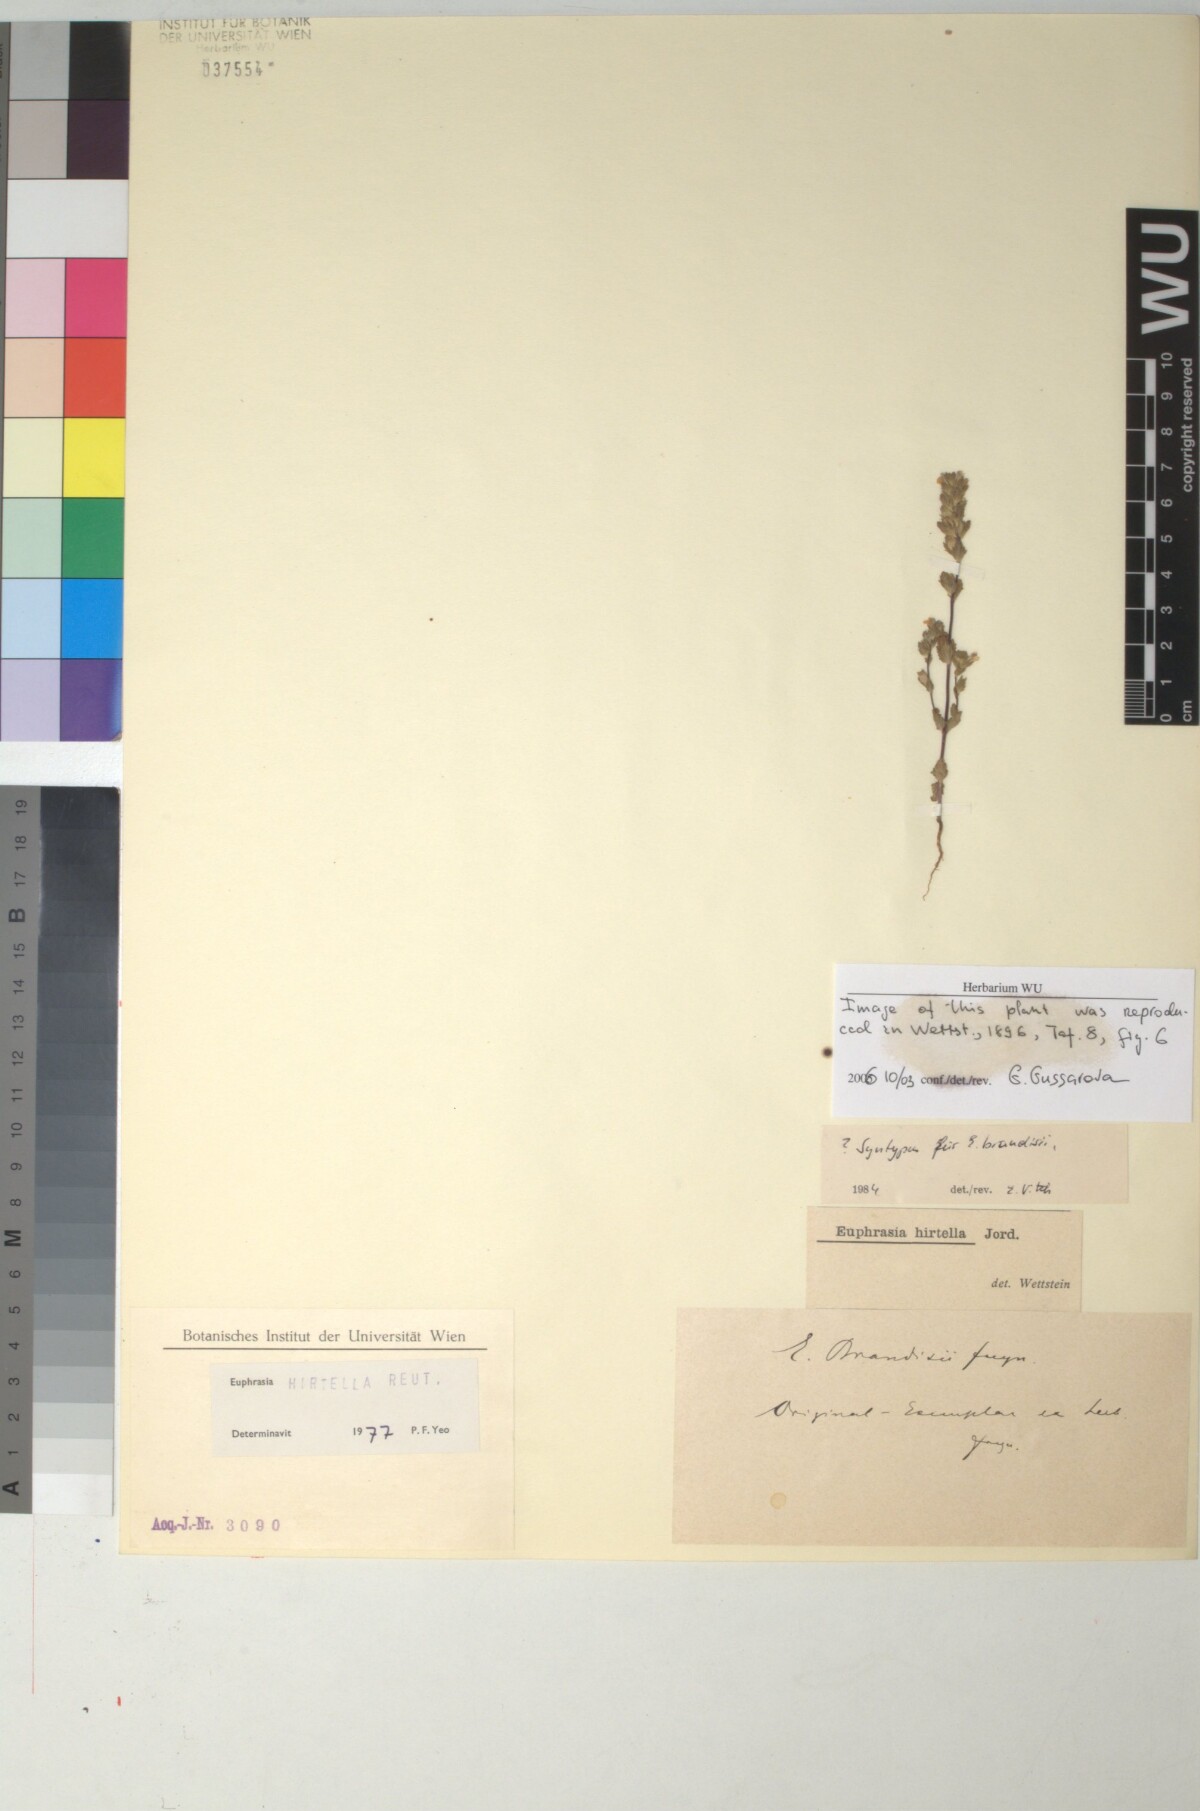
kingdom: Plantae
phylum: Tracheophyta
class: Magnoliopsida
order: Lamiales
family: Orobanchaceae
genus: Euphrasia
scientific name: Euphrasia hirtella
